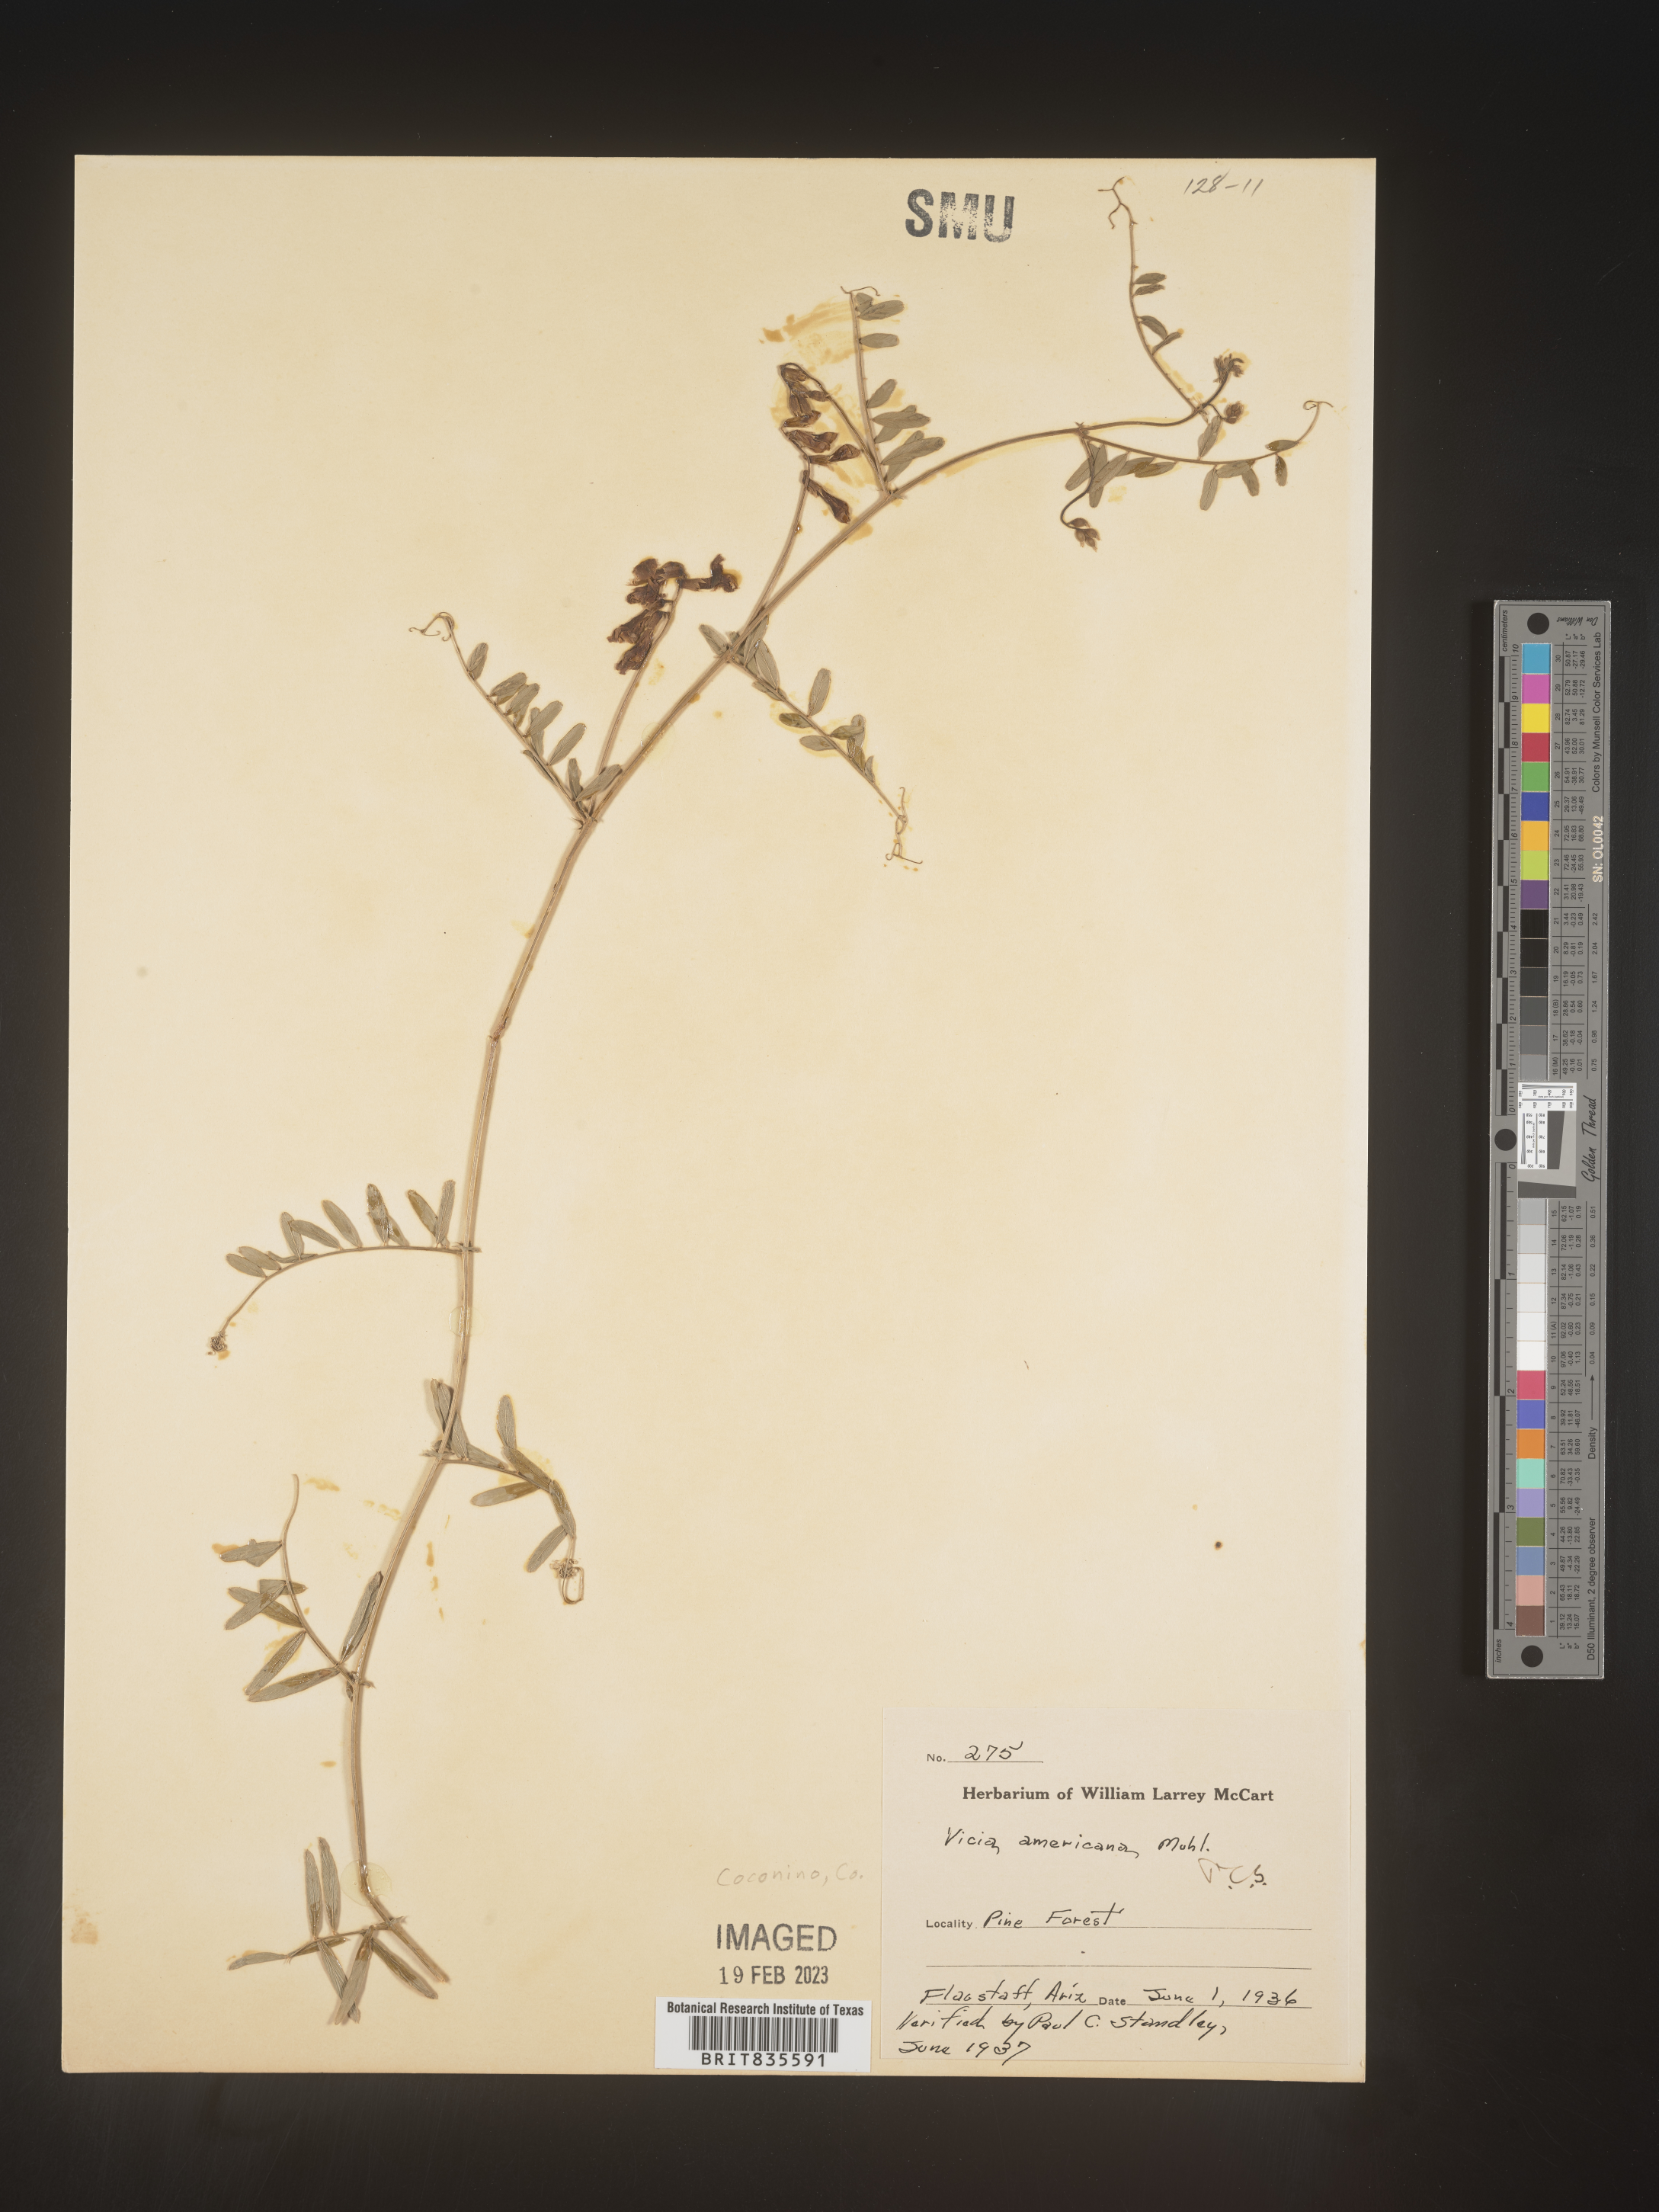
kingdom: Plantae
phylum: Tracheophyta
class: Magnoliopsida
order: Fabales
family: Fabaceae
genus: Vicia
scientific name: Vicia americana
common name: American vetch
